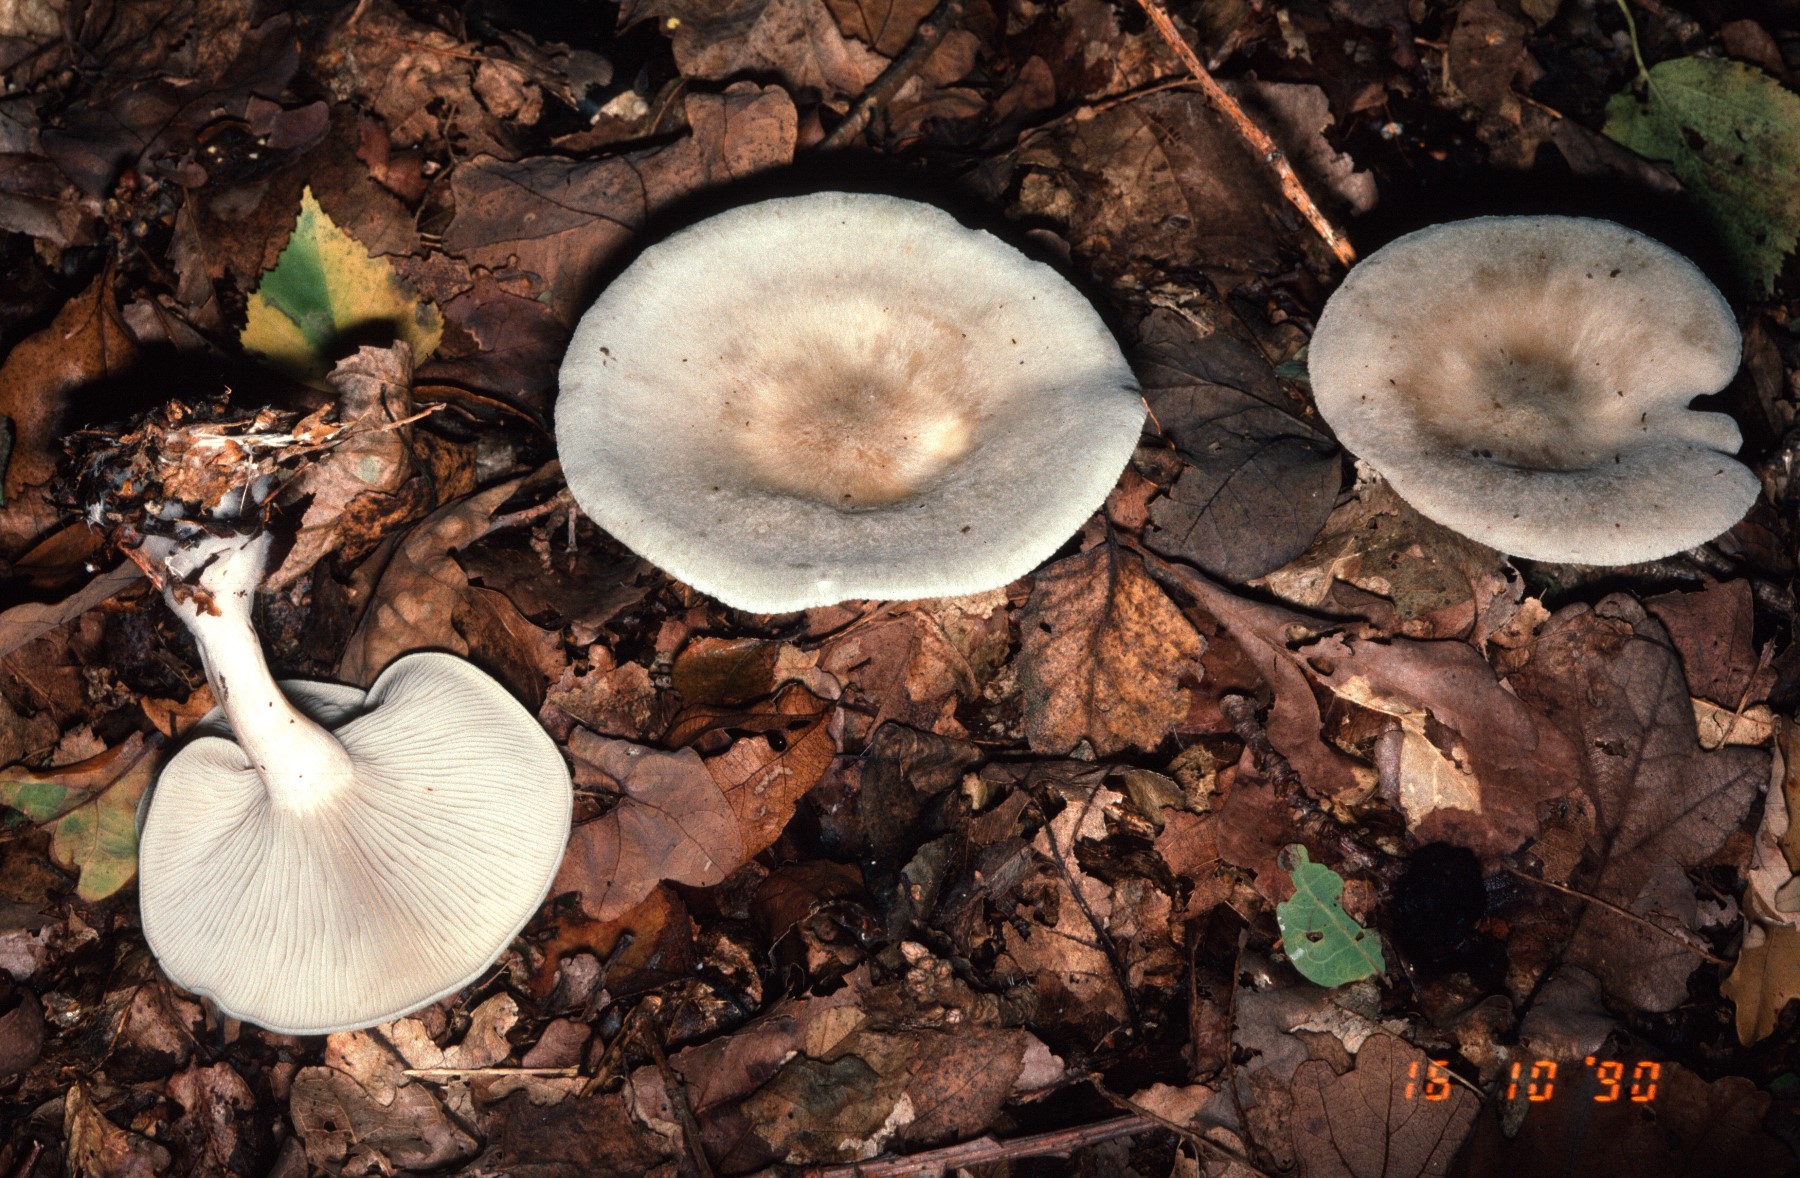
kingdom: Fungi
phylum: Basidiomycota
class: Agaricomycetes
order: Agaricales
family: Tricholomataceae
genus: Clitocybe
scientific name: Clitocybe odora
